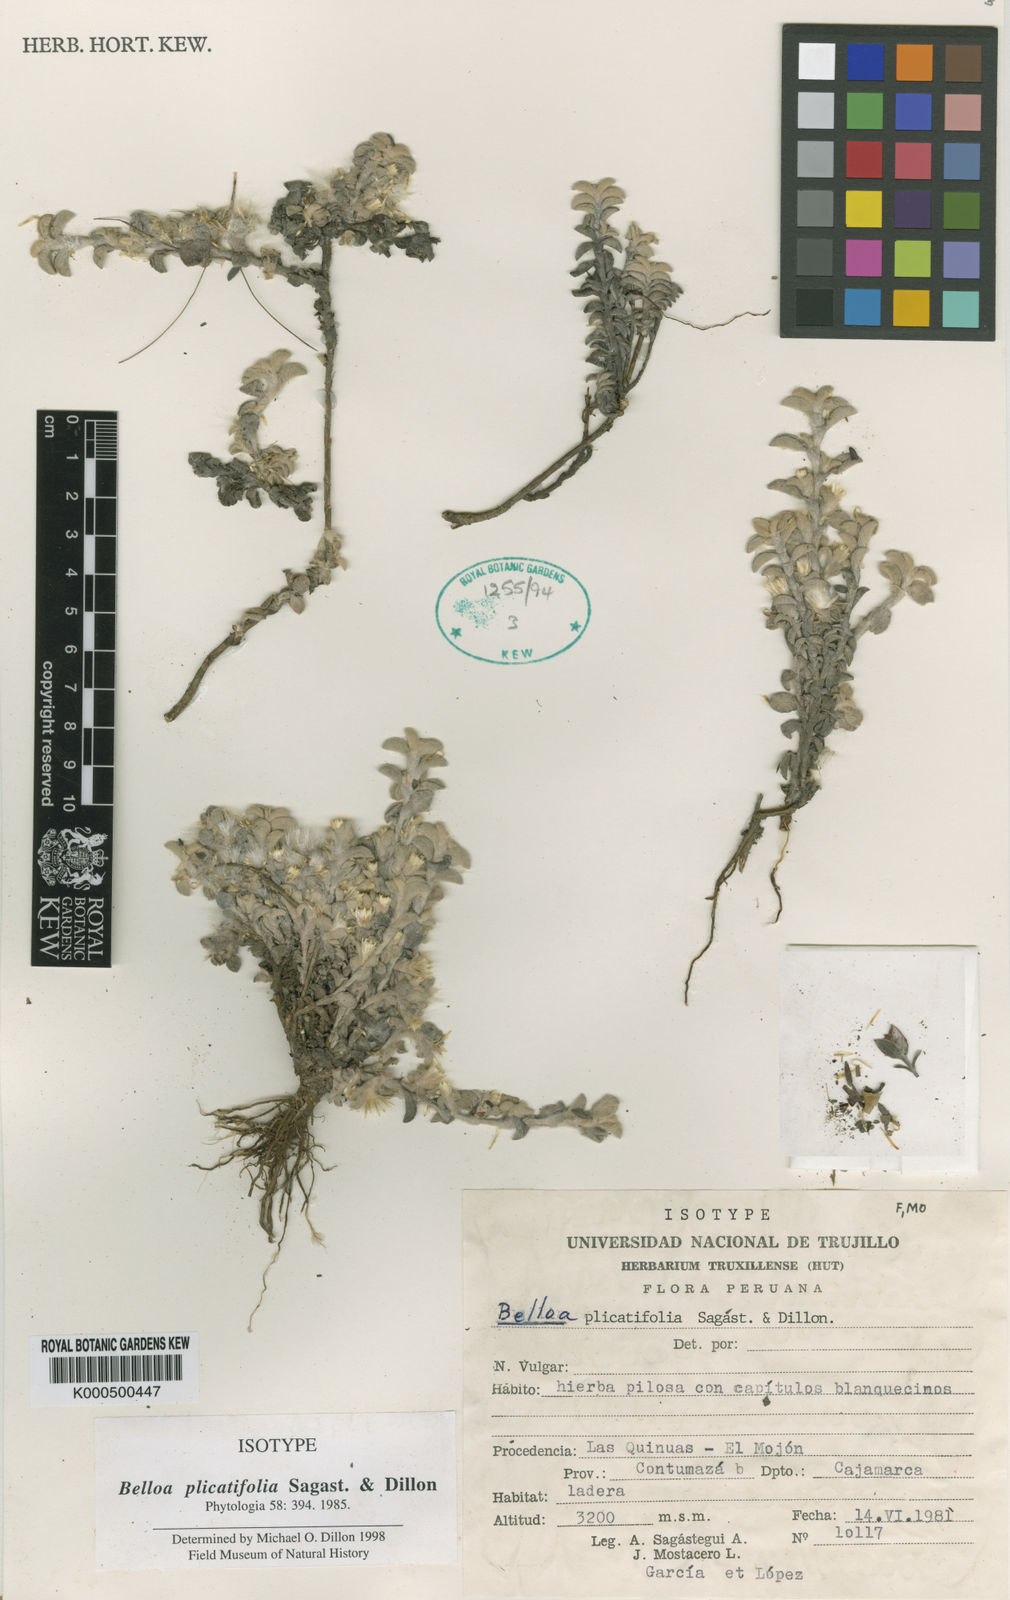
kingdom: Plantae
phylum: Tracheophyta
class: Magnoliopsida
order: Asterales
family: Asteraceae
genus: Belloa
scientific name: Belloa
